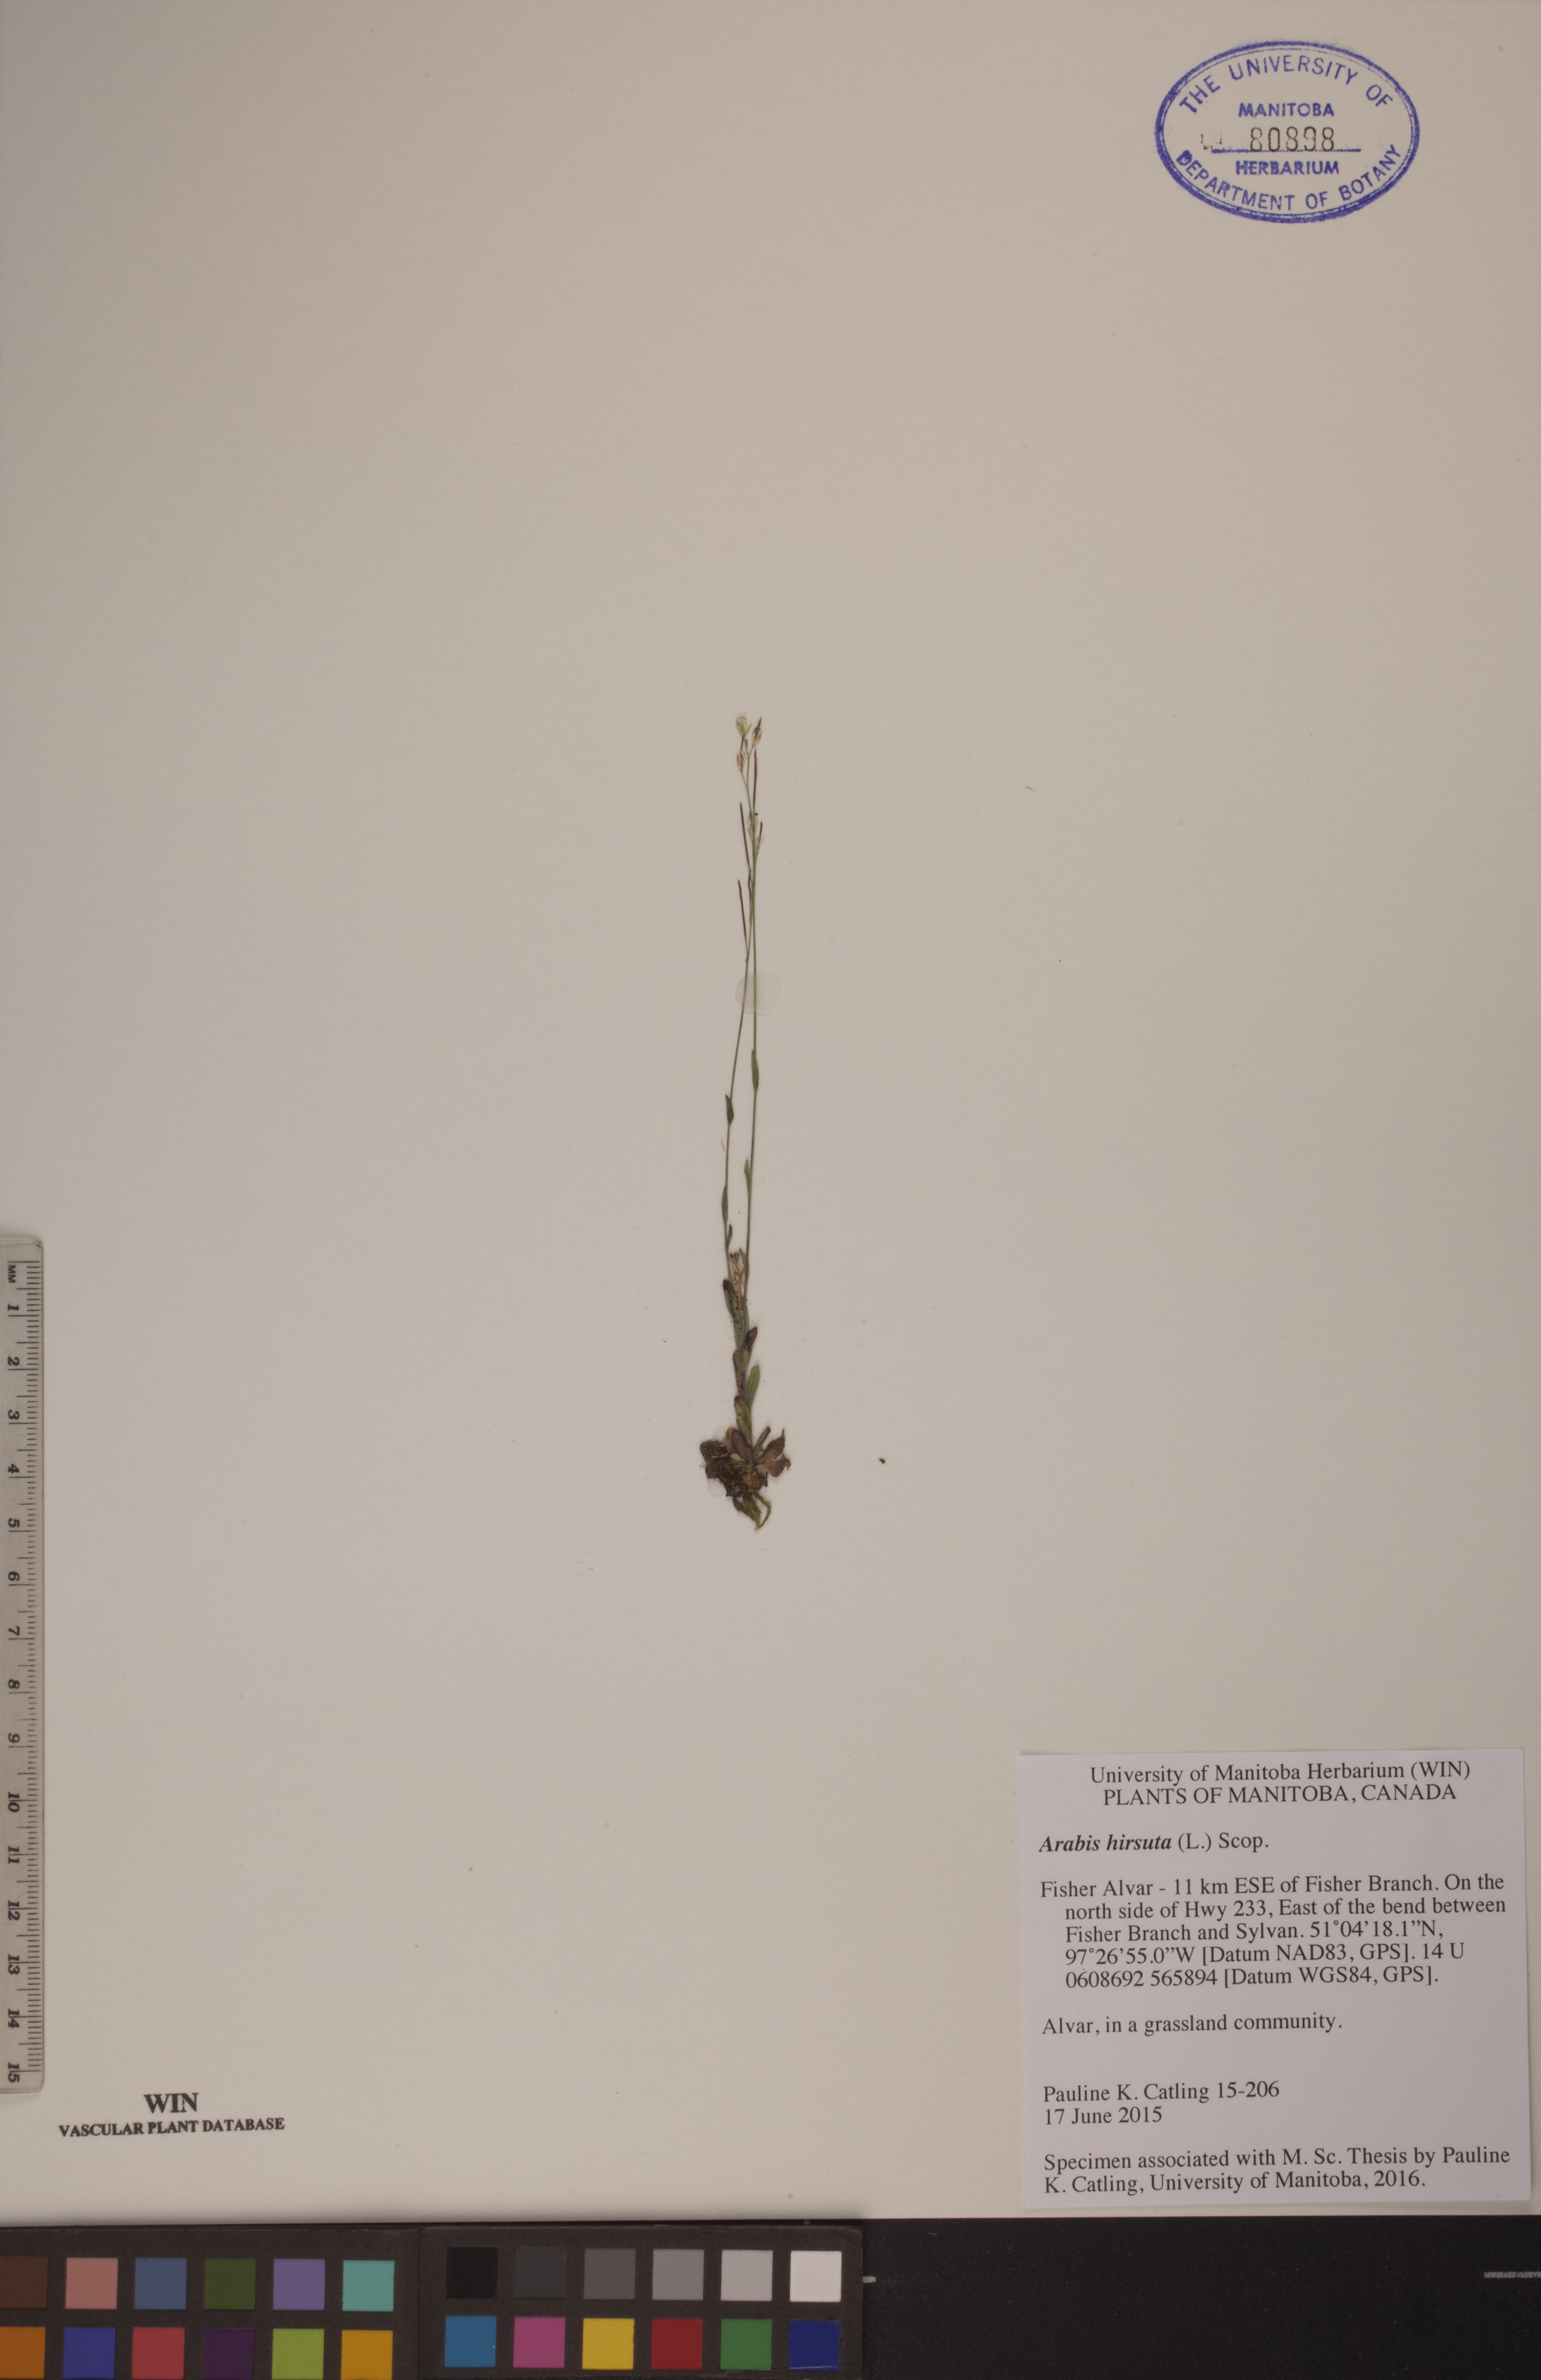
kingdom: Plantae
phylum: Tracheophyta
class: Magnoliopsida
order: Brassicales
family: Brassicaceae
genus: Arabis
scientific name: Arabis hirsuta
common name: Hairy rock-cress
